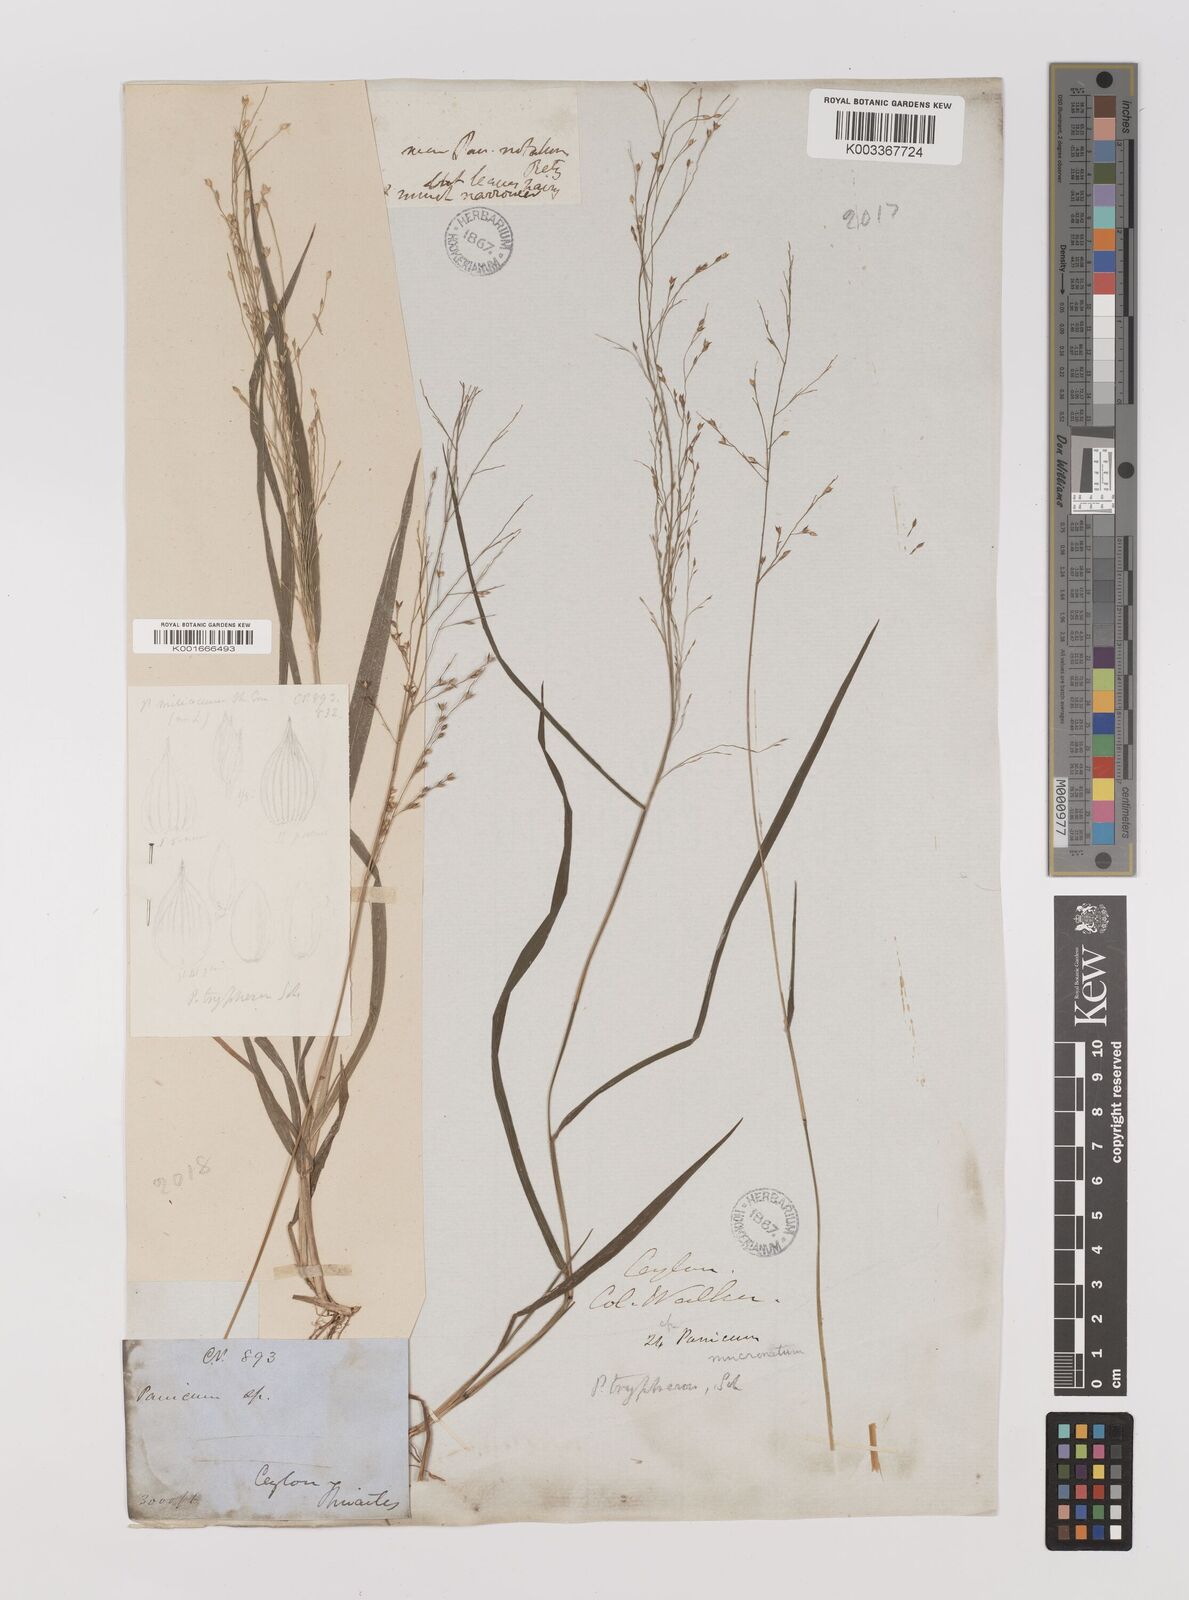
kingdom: Plantae
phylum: Tracheophyta
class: Liliopsida
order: Poales
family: Poaceae
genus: Panicum
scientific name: Panicum curviflorum
